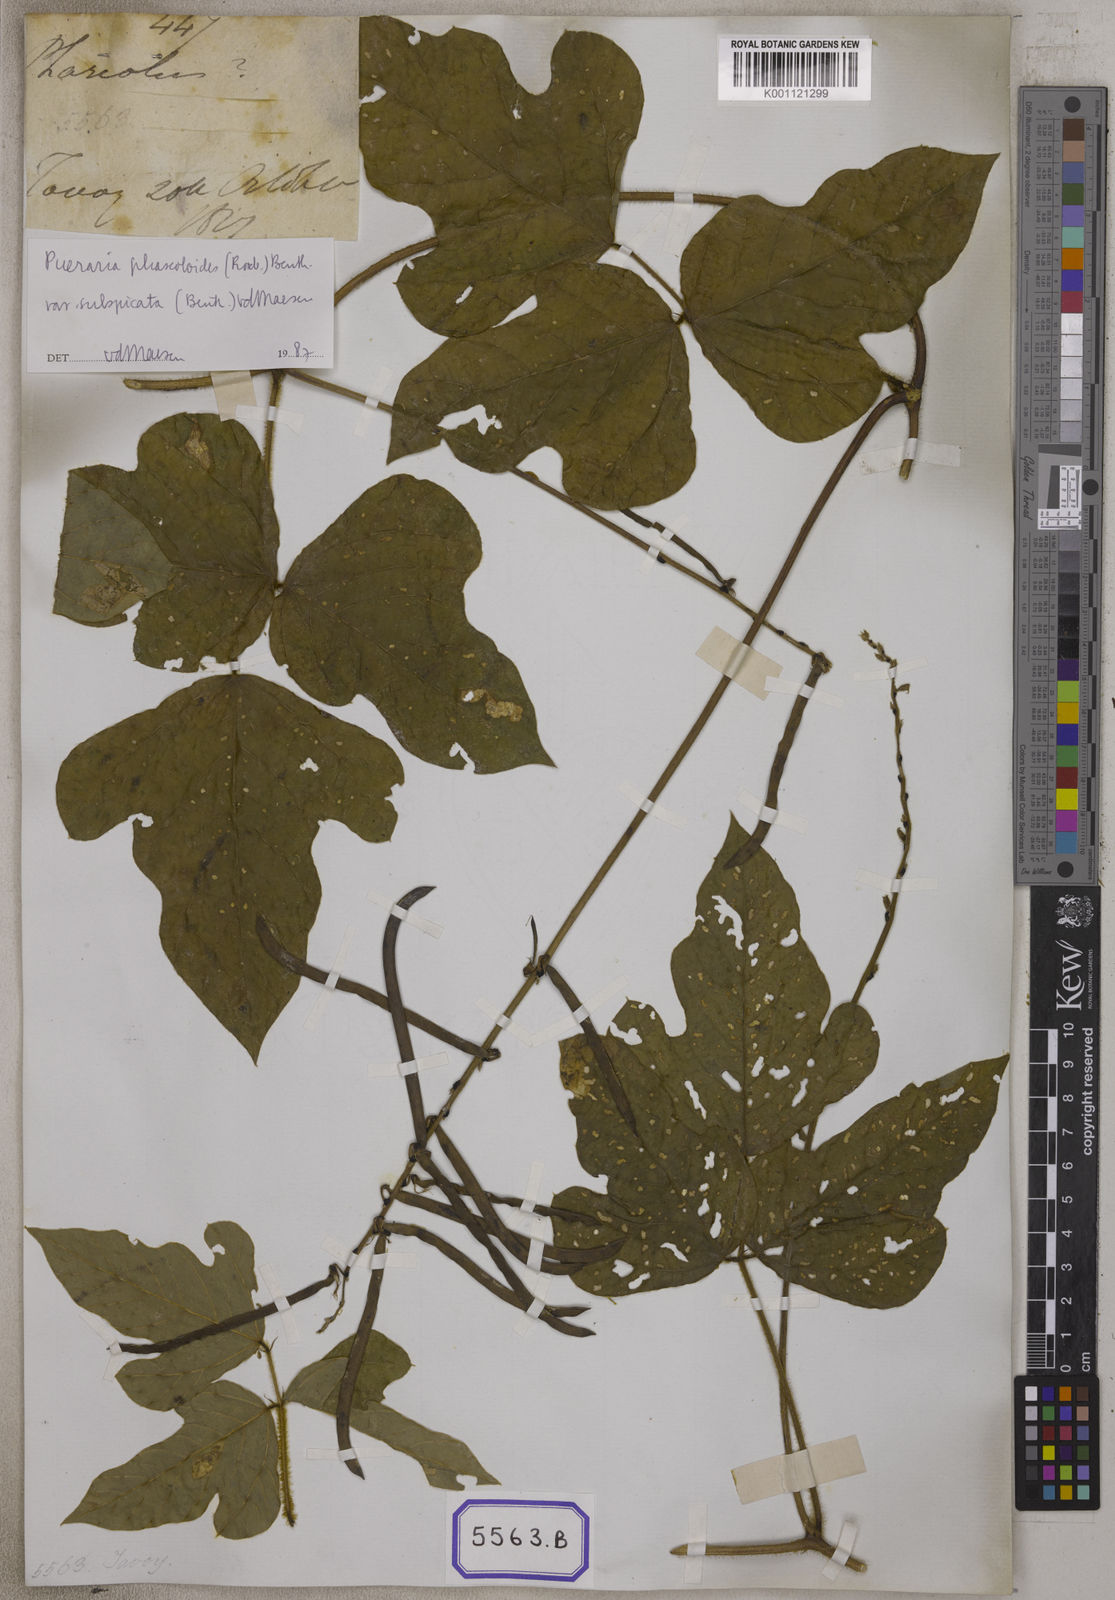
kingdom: Plantae
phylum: Tracheophyta
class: Magnoliopsida
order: Fabales
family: Fabaceae
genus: Dolichos
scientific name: Dolichos
